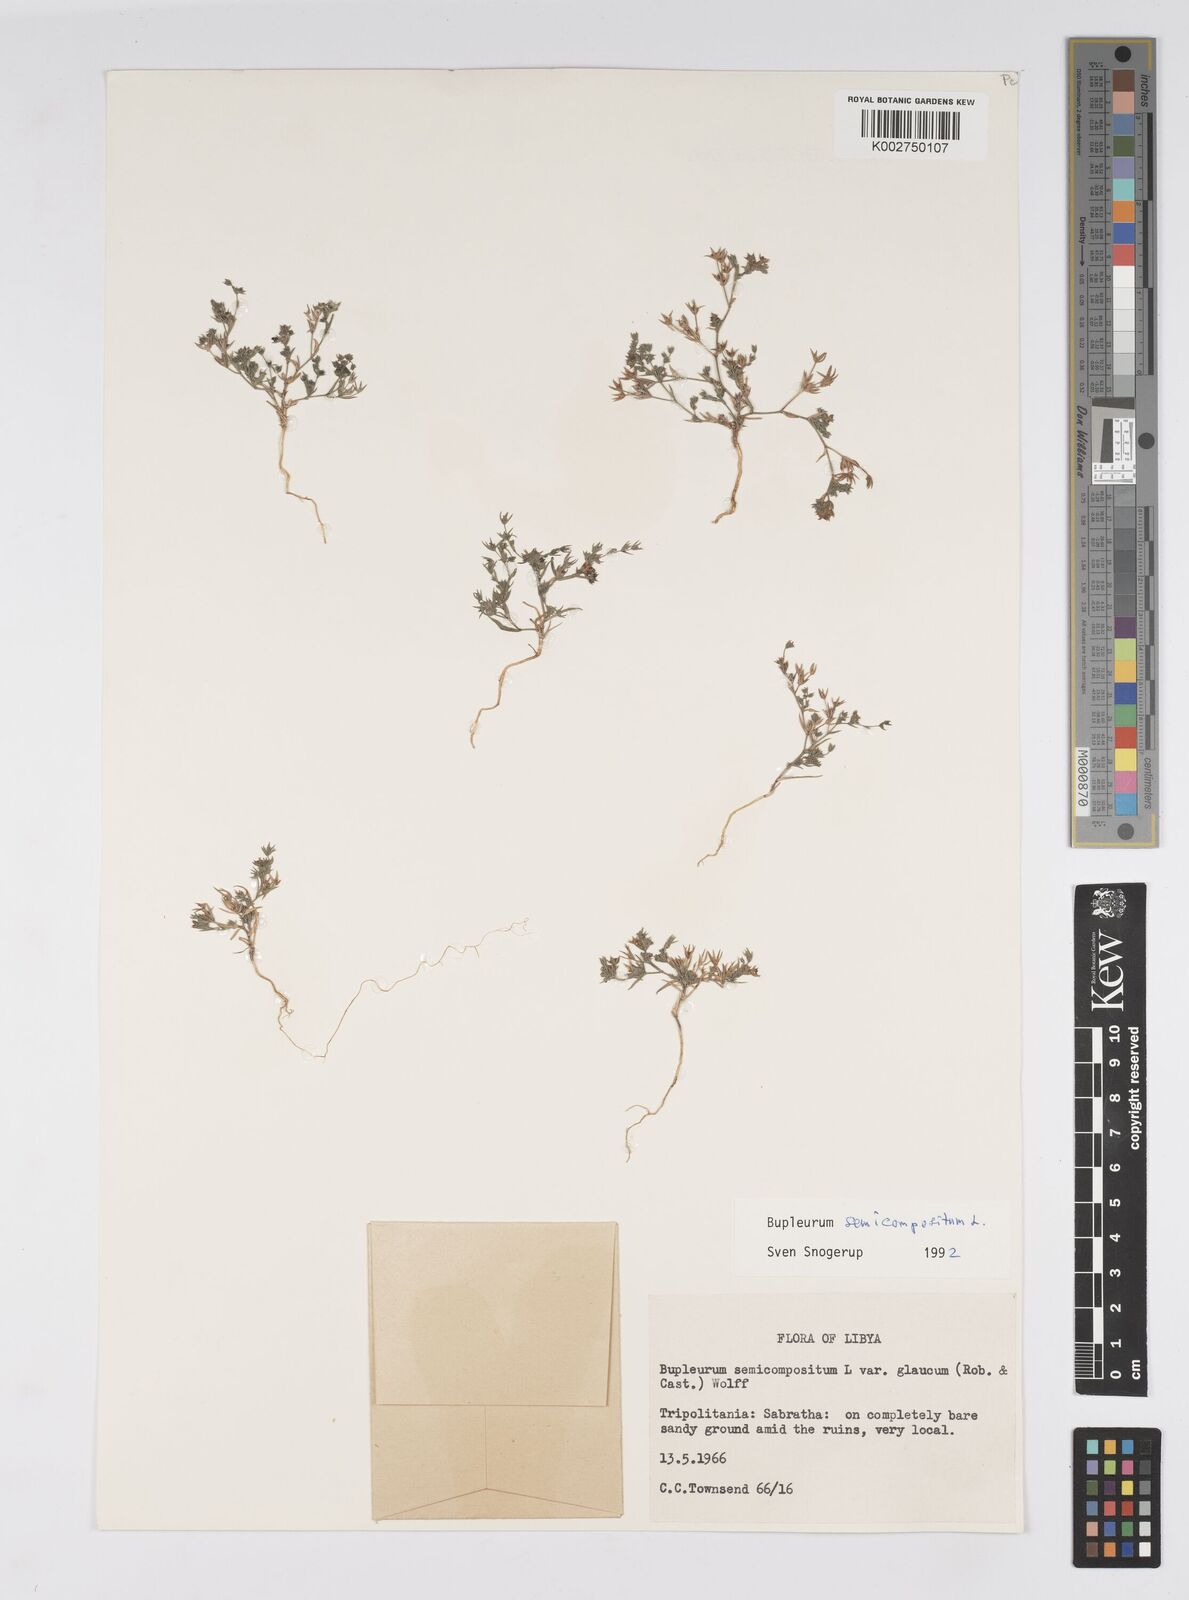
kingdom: Plantae
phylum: Tracheophyta
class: Magnoliopsida
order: Apiales
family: Apiaceae
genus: Bupleurum
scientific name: Bupleurum semicompositum
